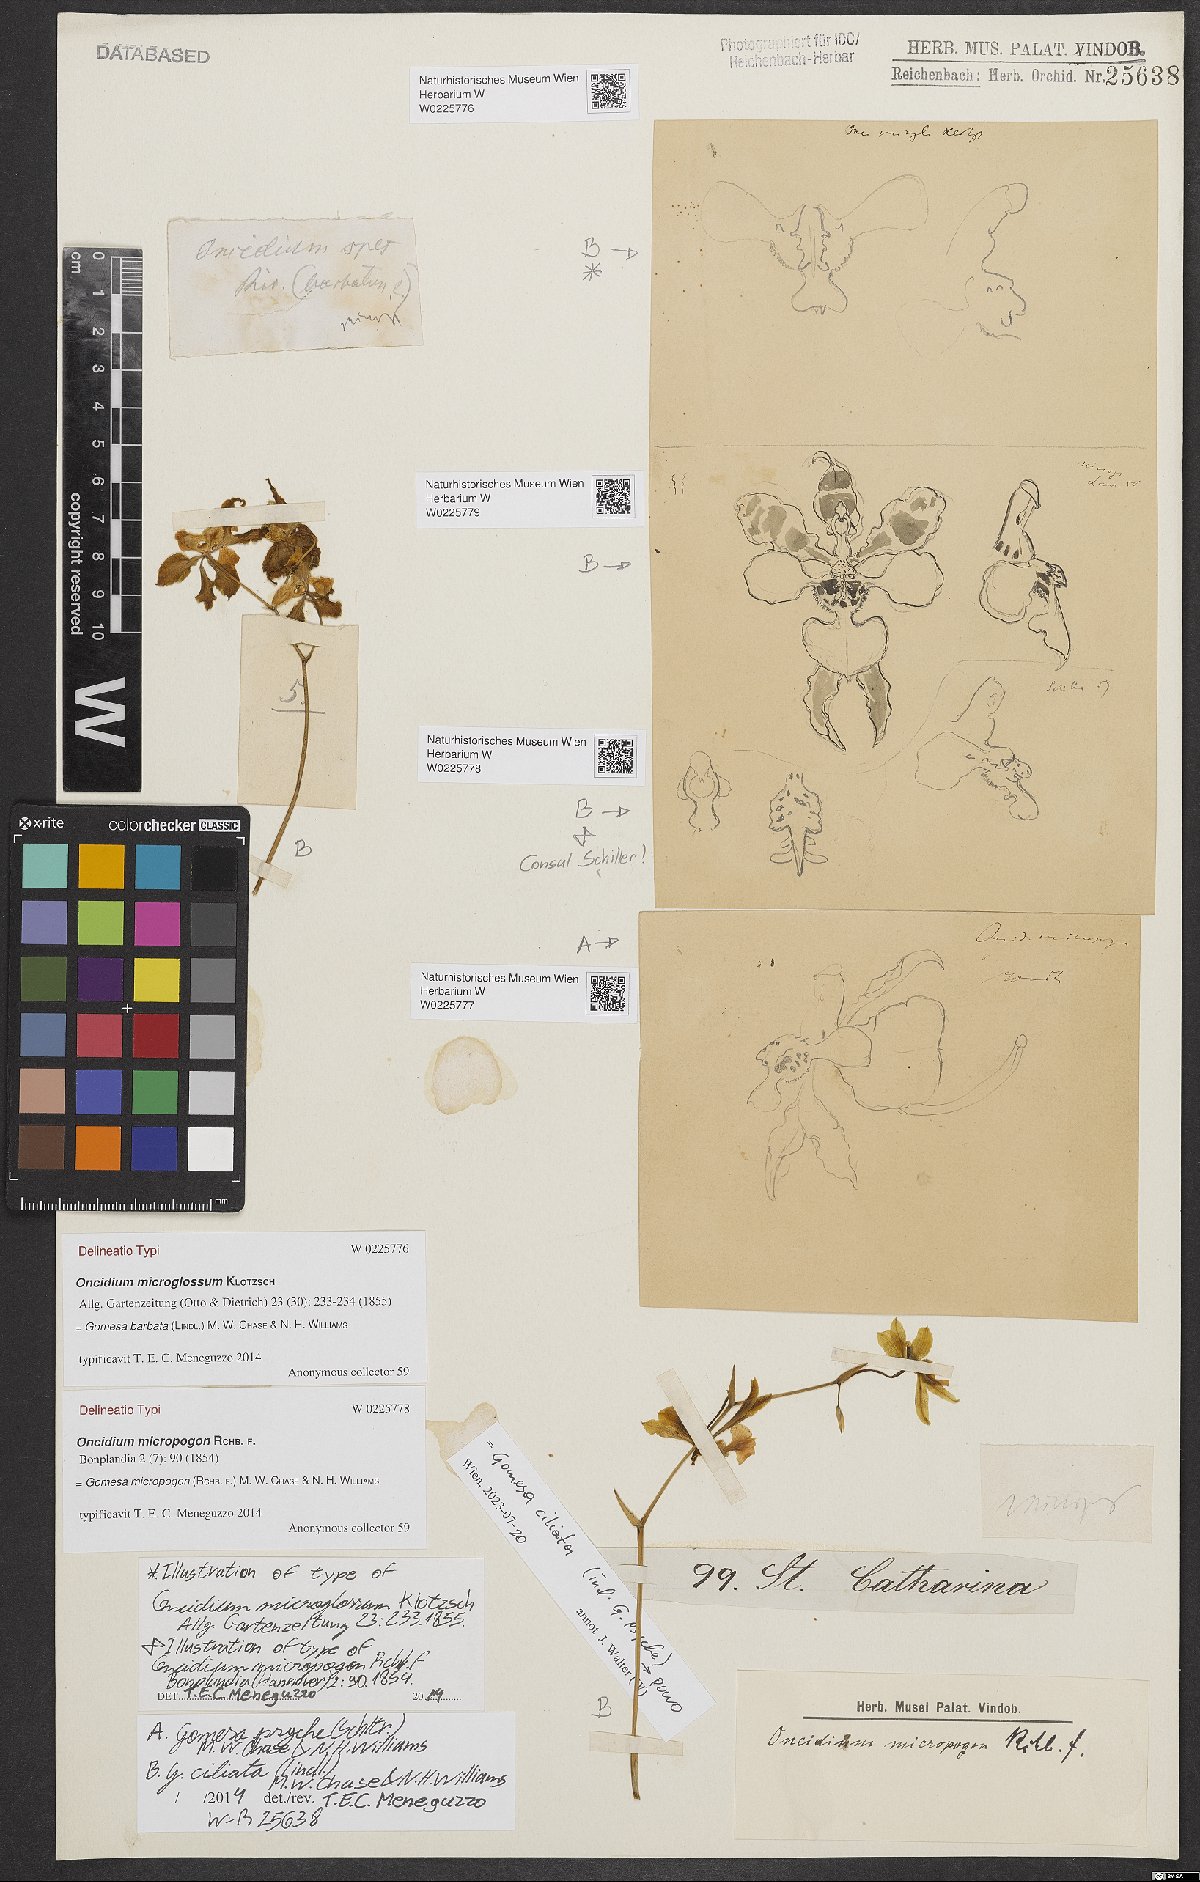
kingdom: Plantae
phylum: Tracheophyta
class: Liliopsida
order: Asparagales
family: Orchidaceae
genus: Gomesa
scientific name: Gomesa ciliata
